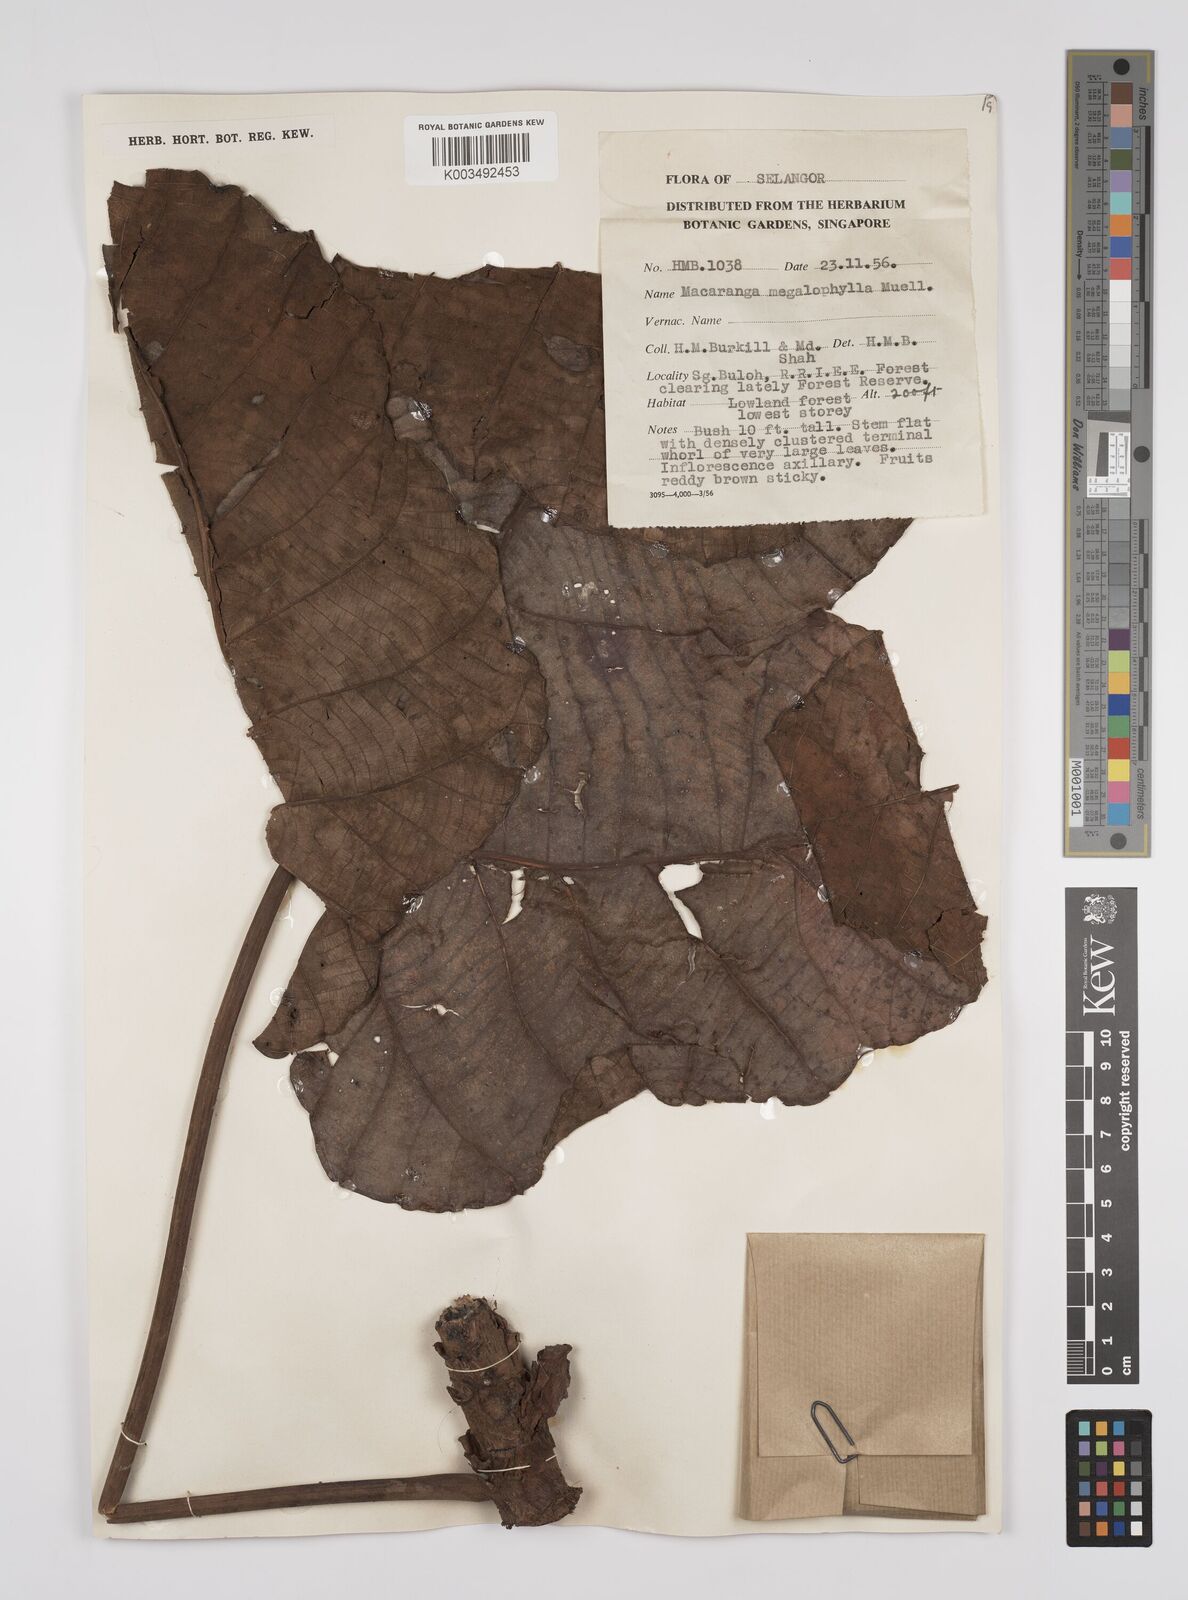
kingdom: Plantae
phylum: Tracheophyta
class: Magnoliopsida
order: Malpighiales
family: Euphorbiaceae
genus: Macaranga
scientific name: Macaranga gigantea
